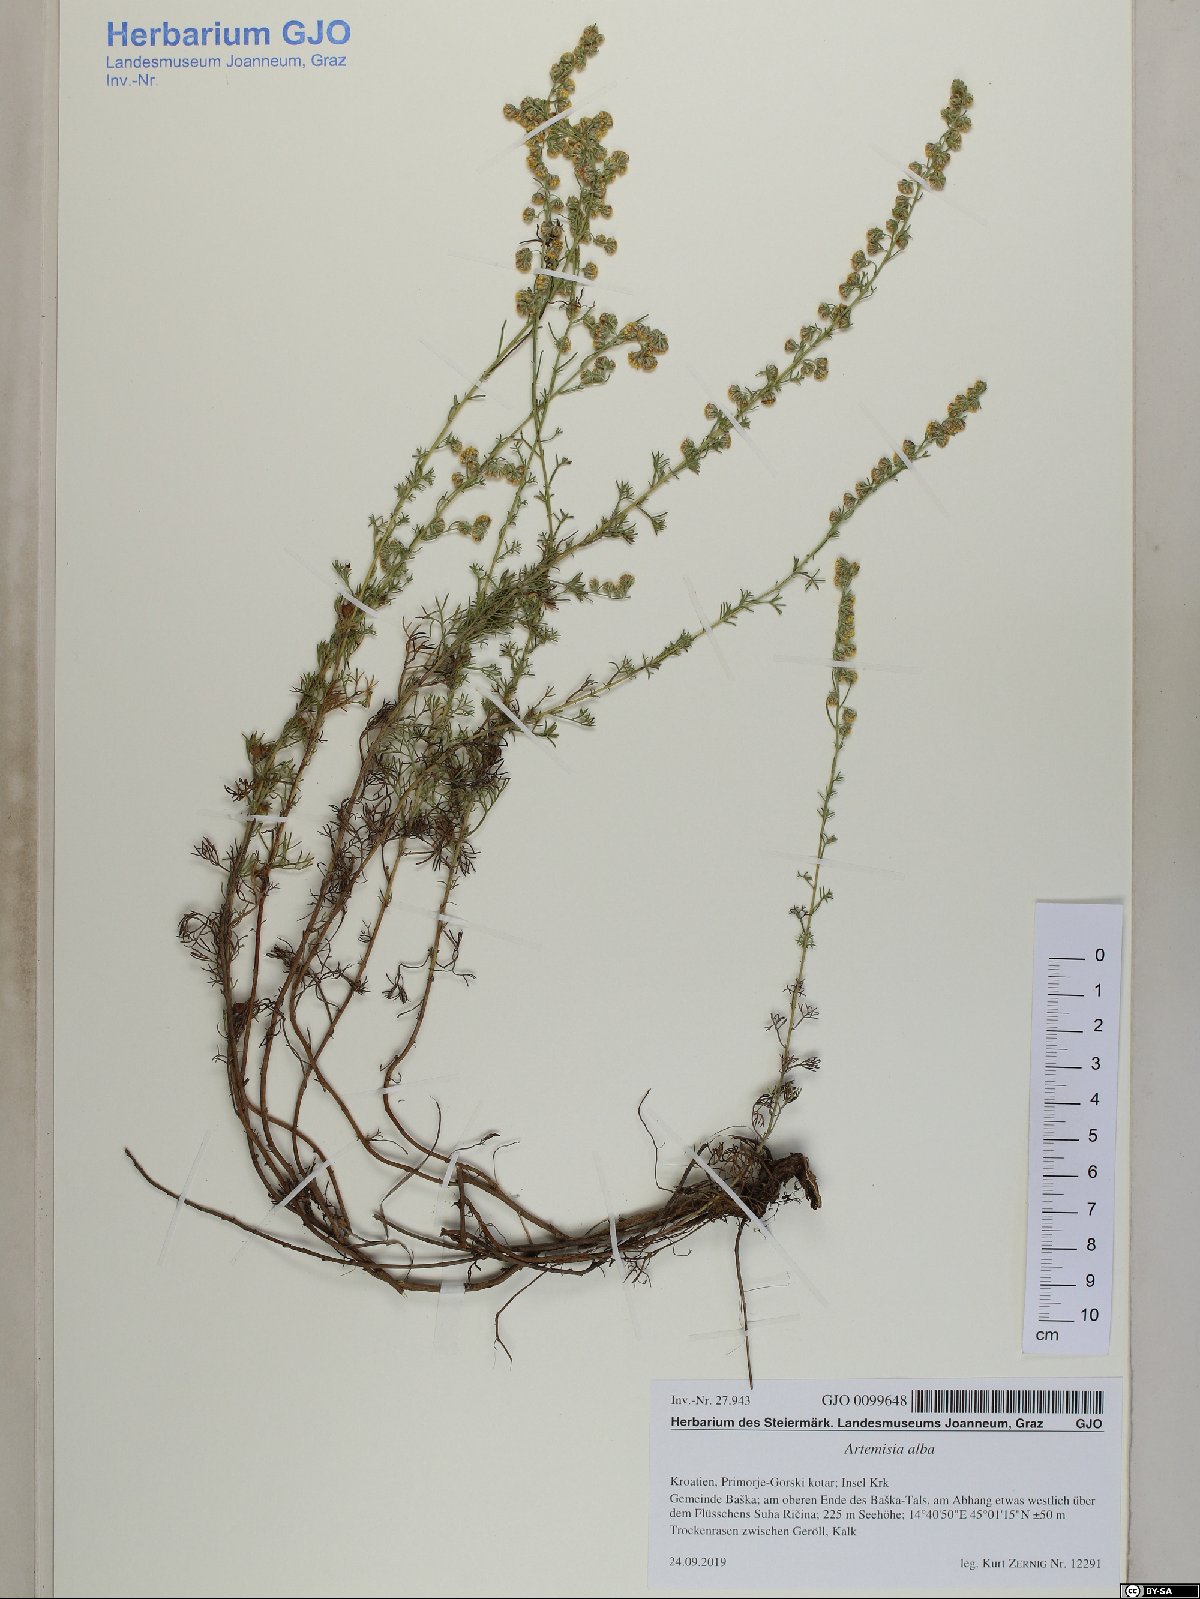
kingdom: Plantae
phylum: Tracheophyta
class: Magnoliopsida
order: Asterales
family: Asteraceae
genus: Artemisia
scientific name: Artemisia alba
